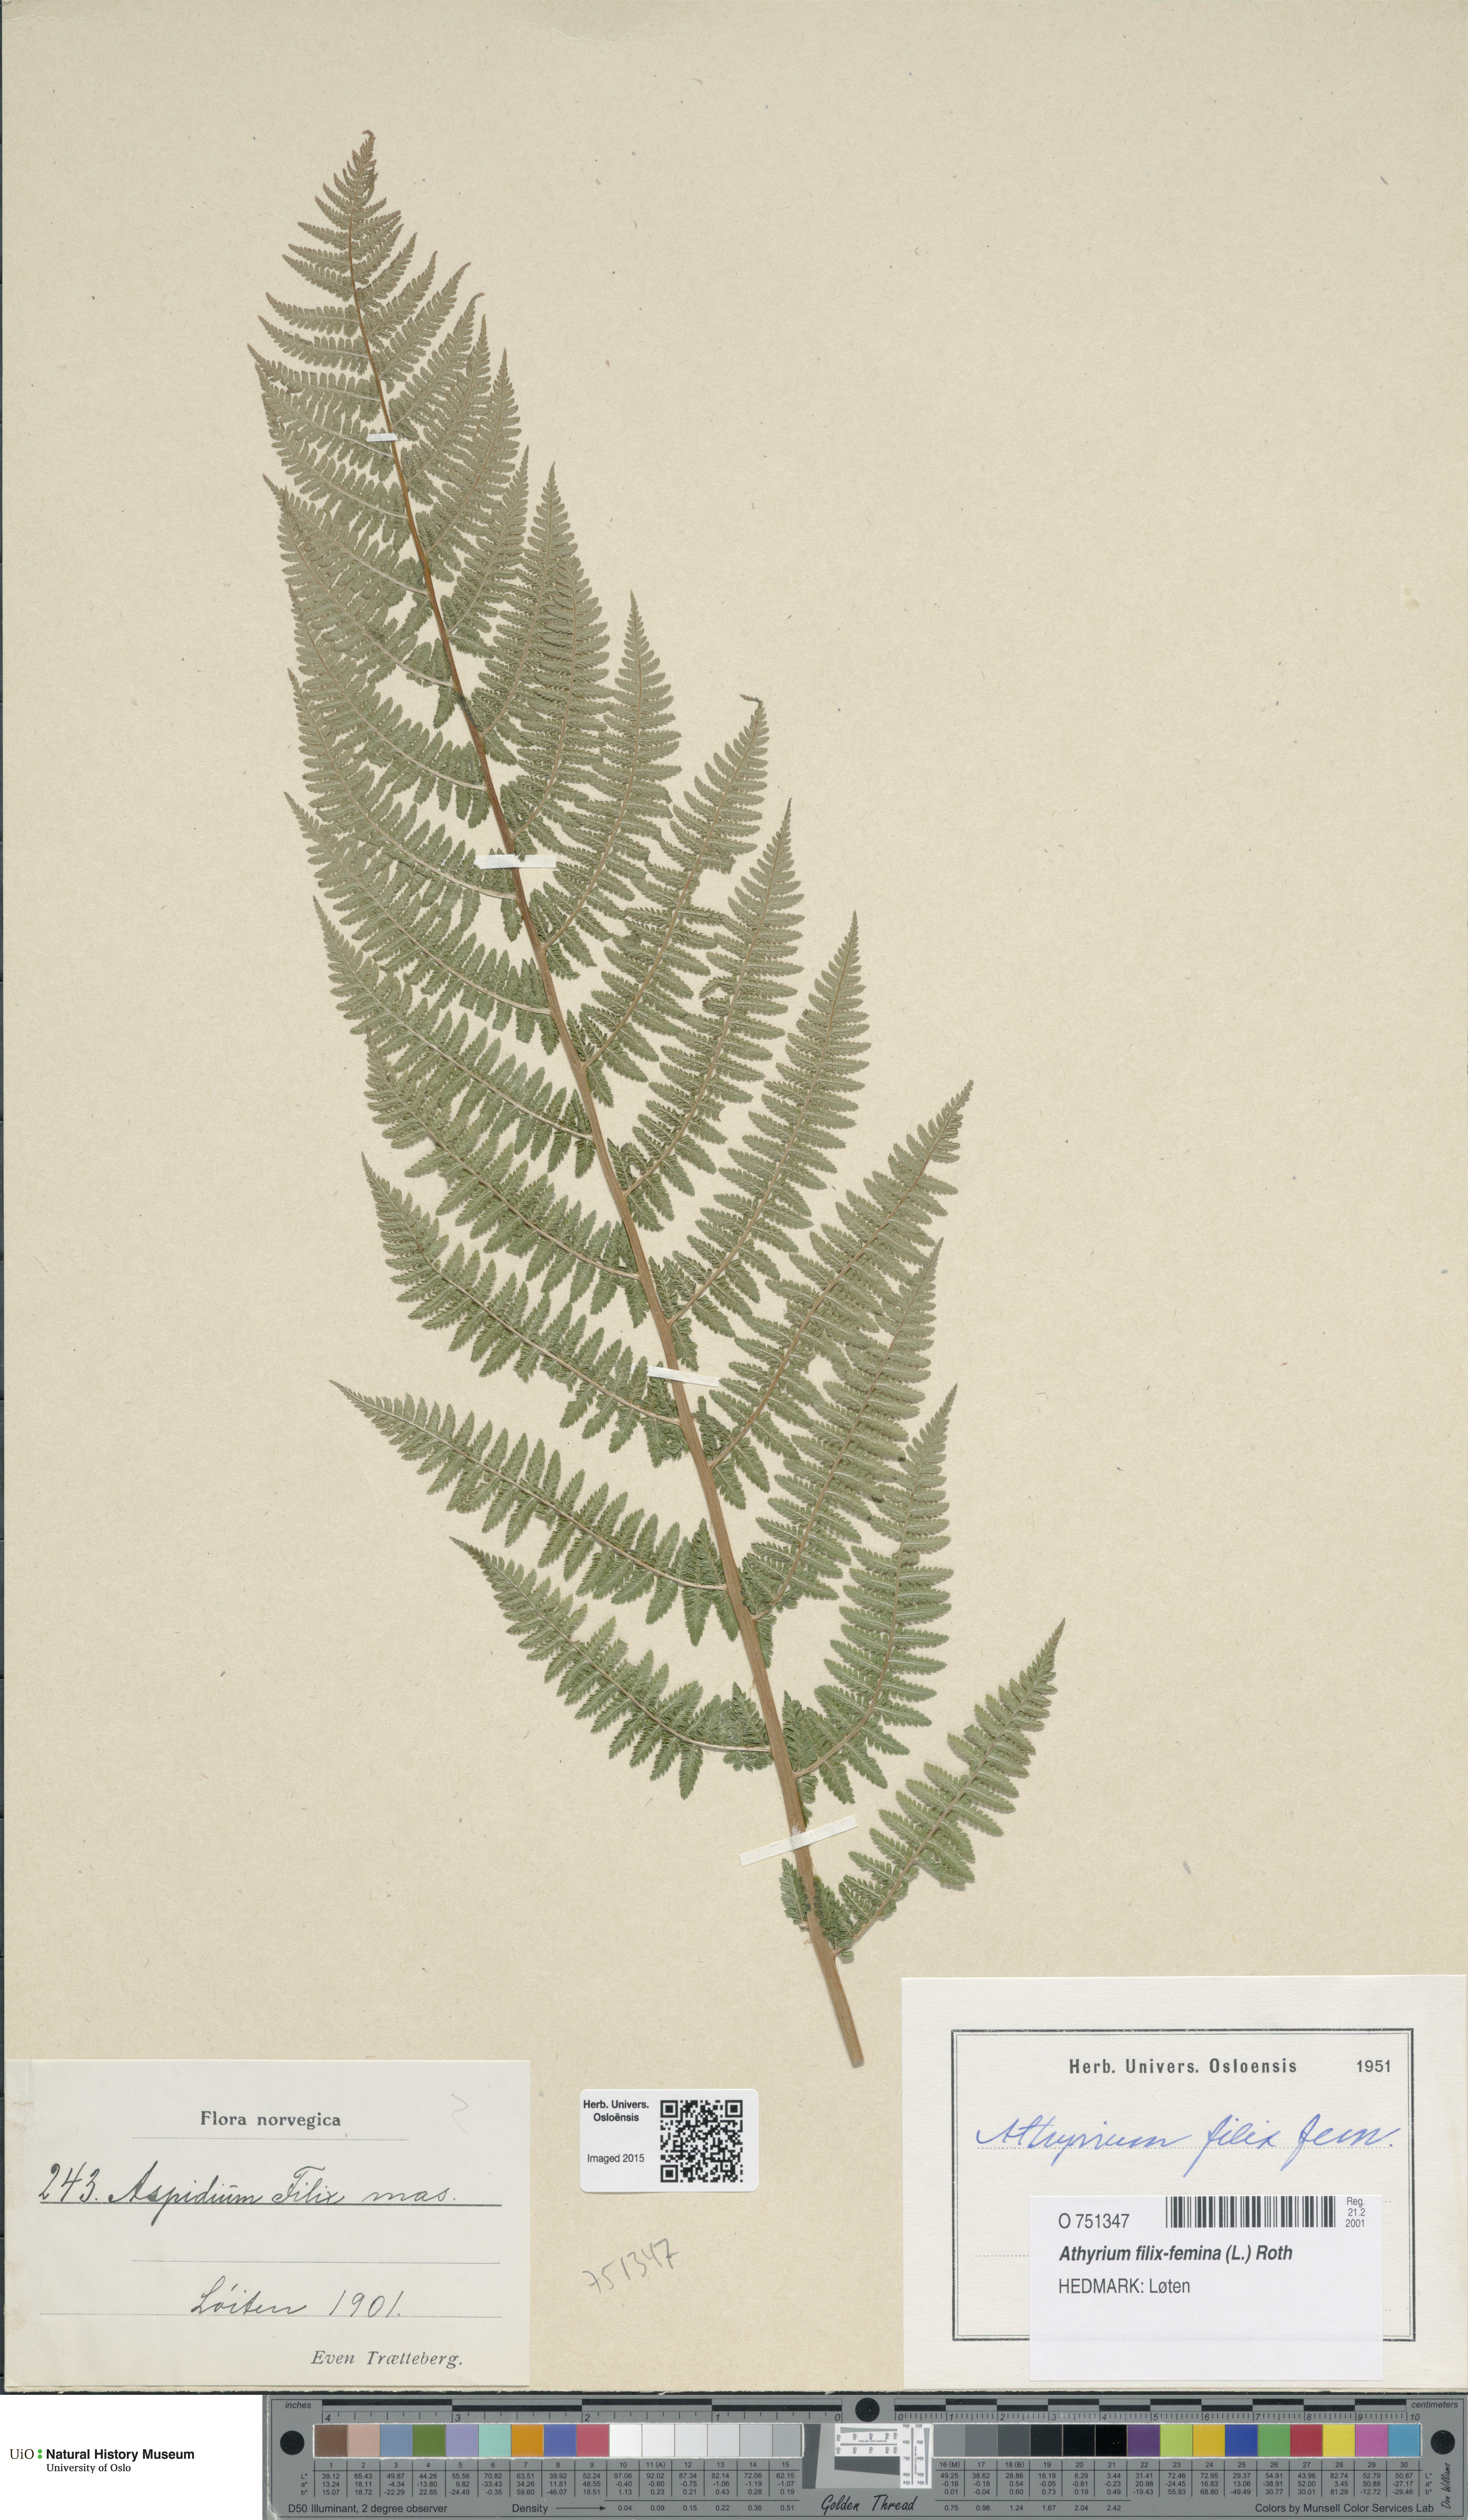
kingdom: Plantae
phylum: Tracheophyta
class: Polypodiopsida
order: Polypodiales
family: Athyriaceae
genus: Athyrium
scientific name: Athyrium filix-femina
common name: Lady fern
